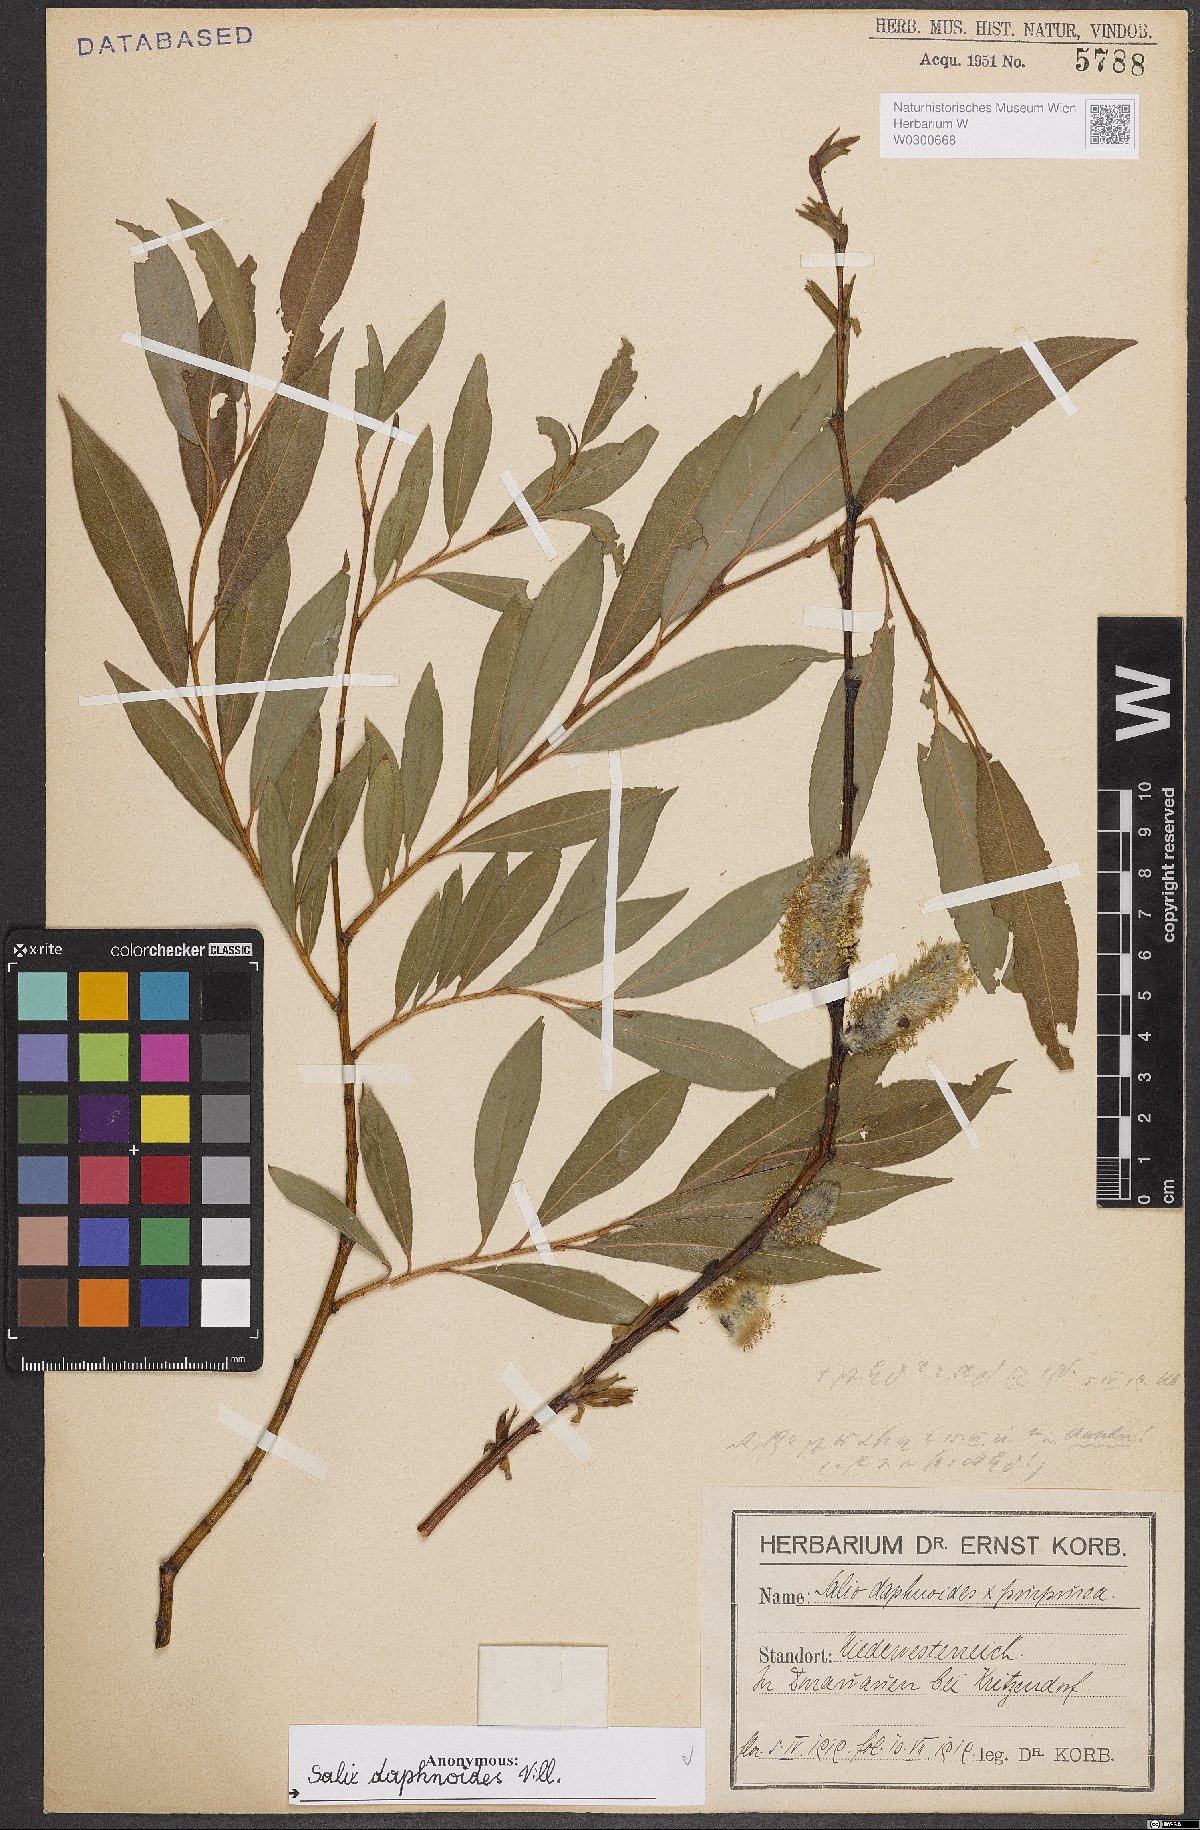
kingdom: Plantae
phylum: Tracheophyta
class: Magnoliopsida
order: Malpighiales
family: Salicaceae
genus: Salix
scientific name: Salix daphnoides
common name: European violet-willow
